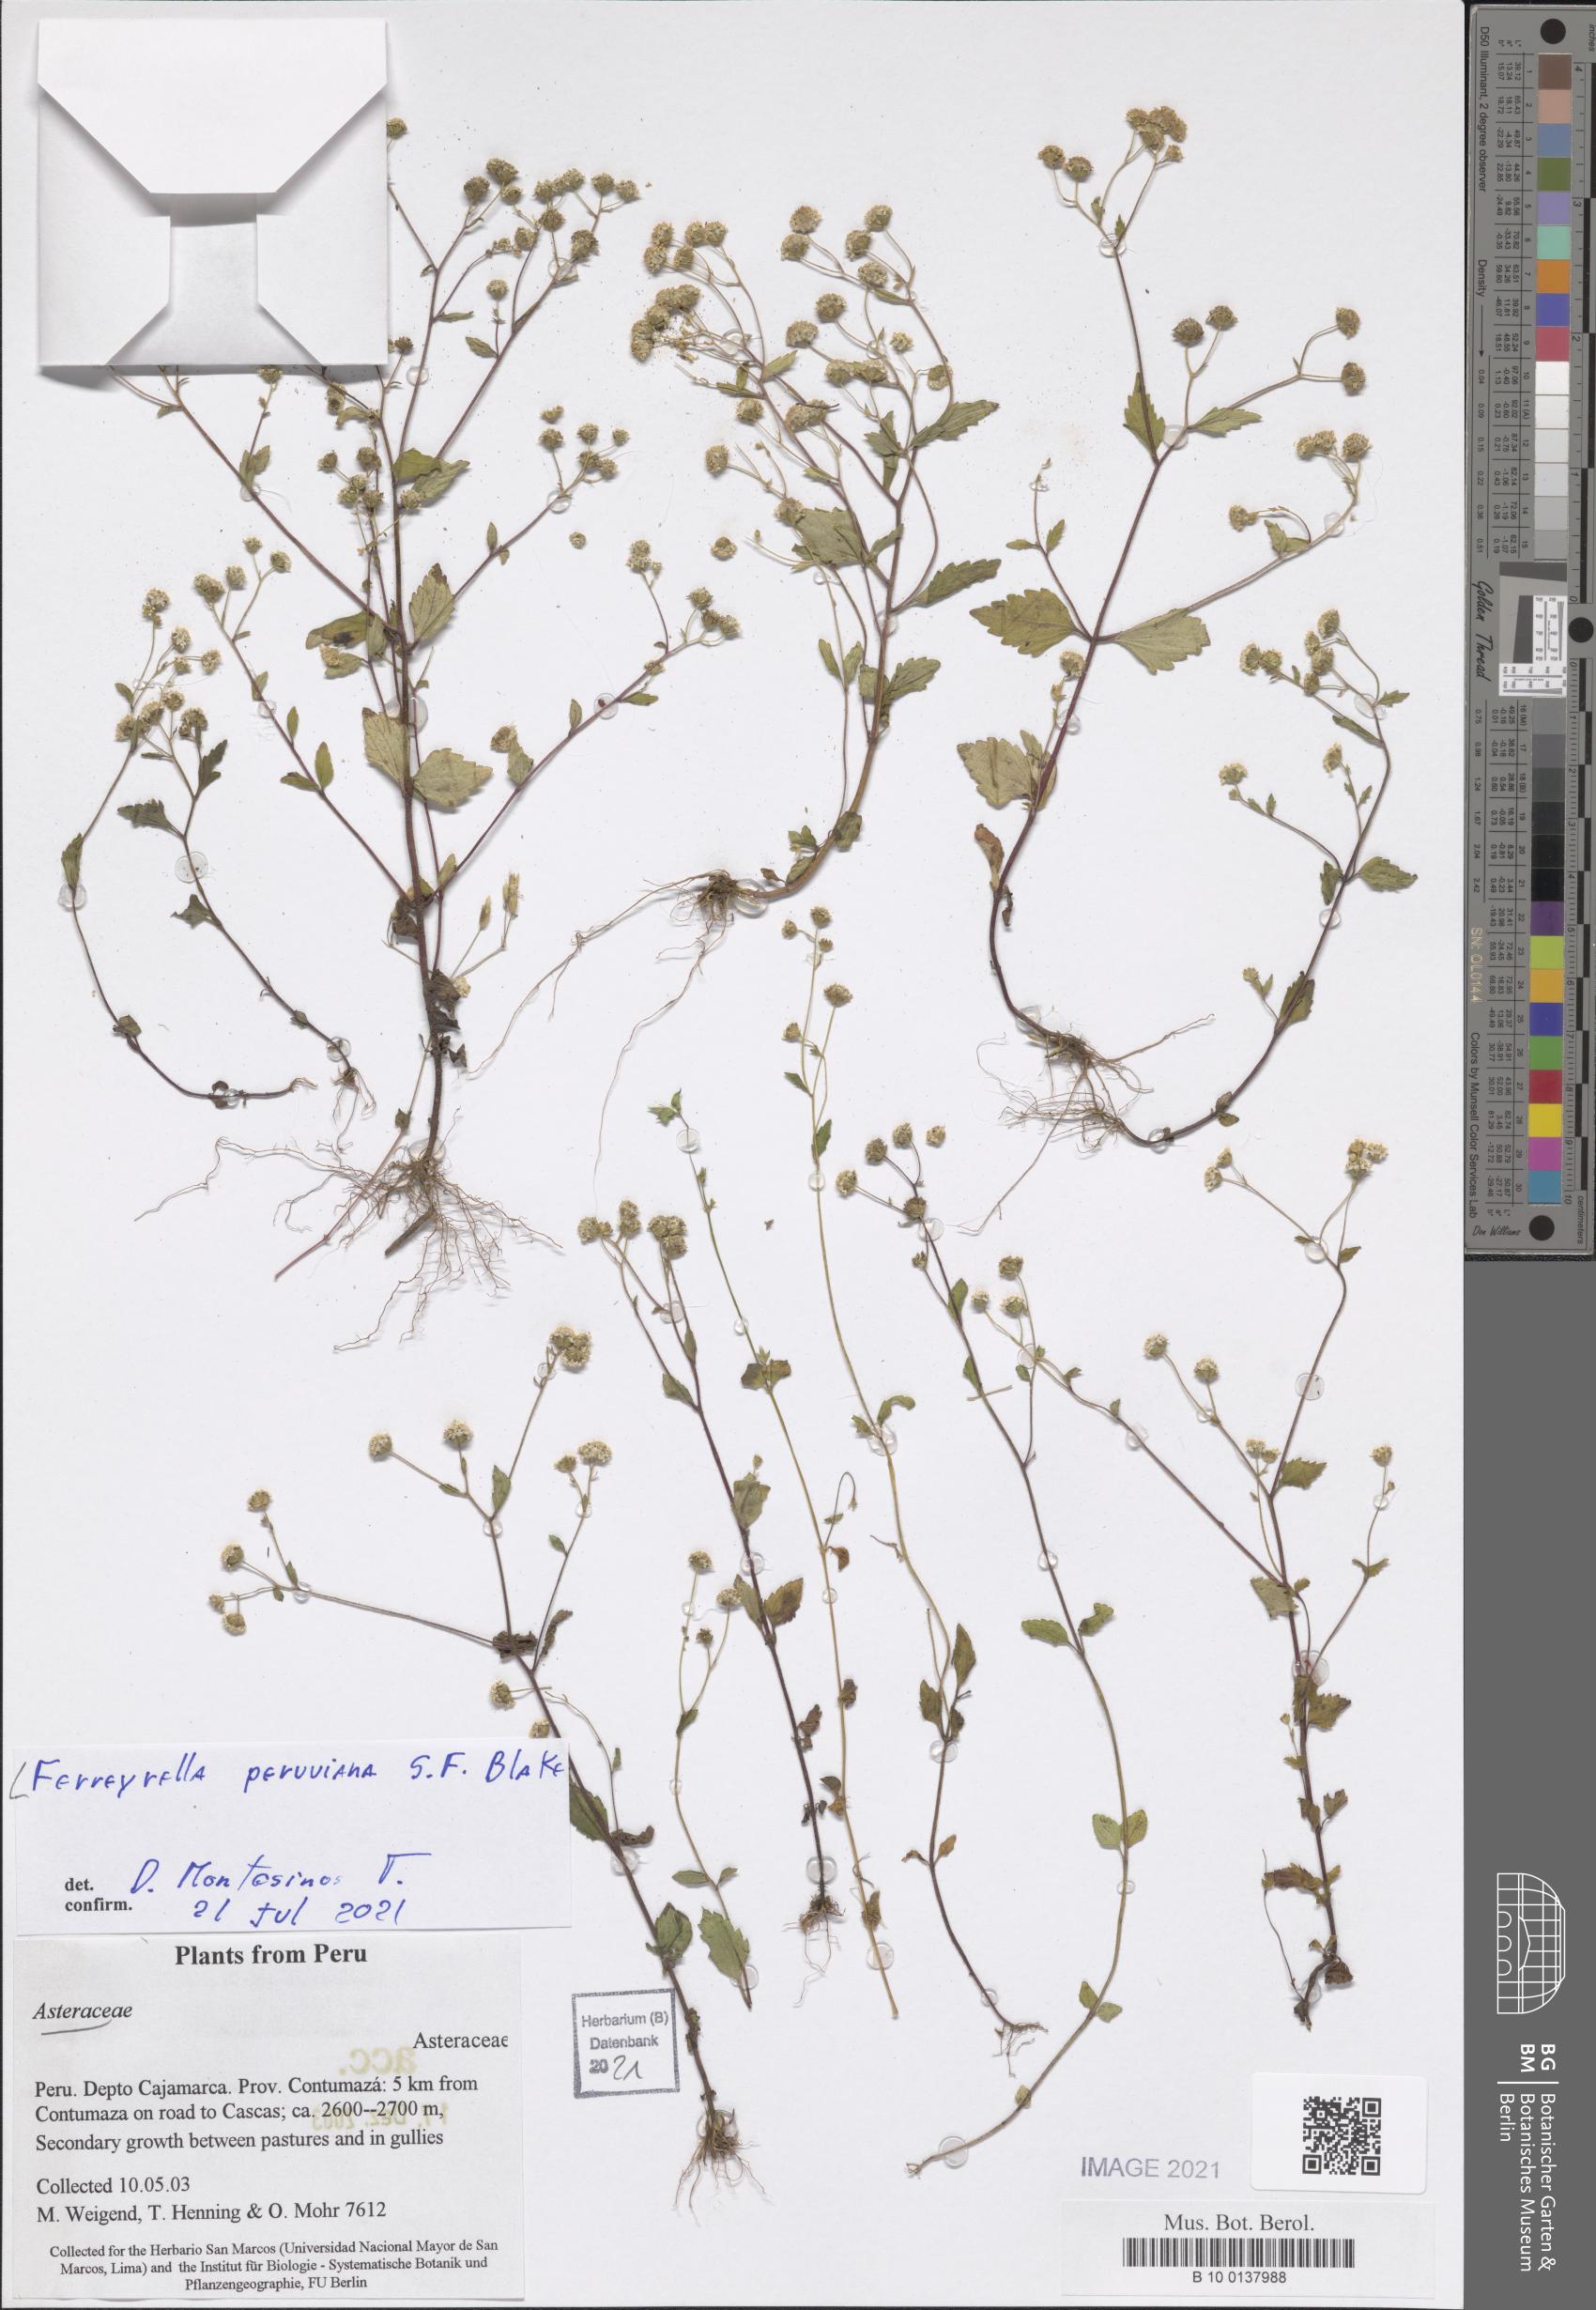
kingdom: Plantae
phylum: Tracheophyta
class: Magnoliopsida
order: Asterales
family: Asteraceae
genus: Ferreyrella
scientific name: Ferreyrella peruviana
